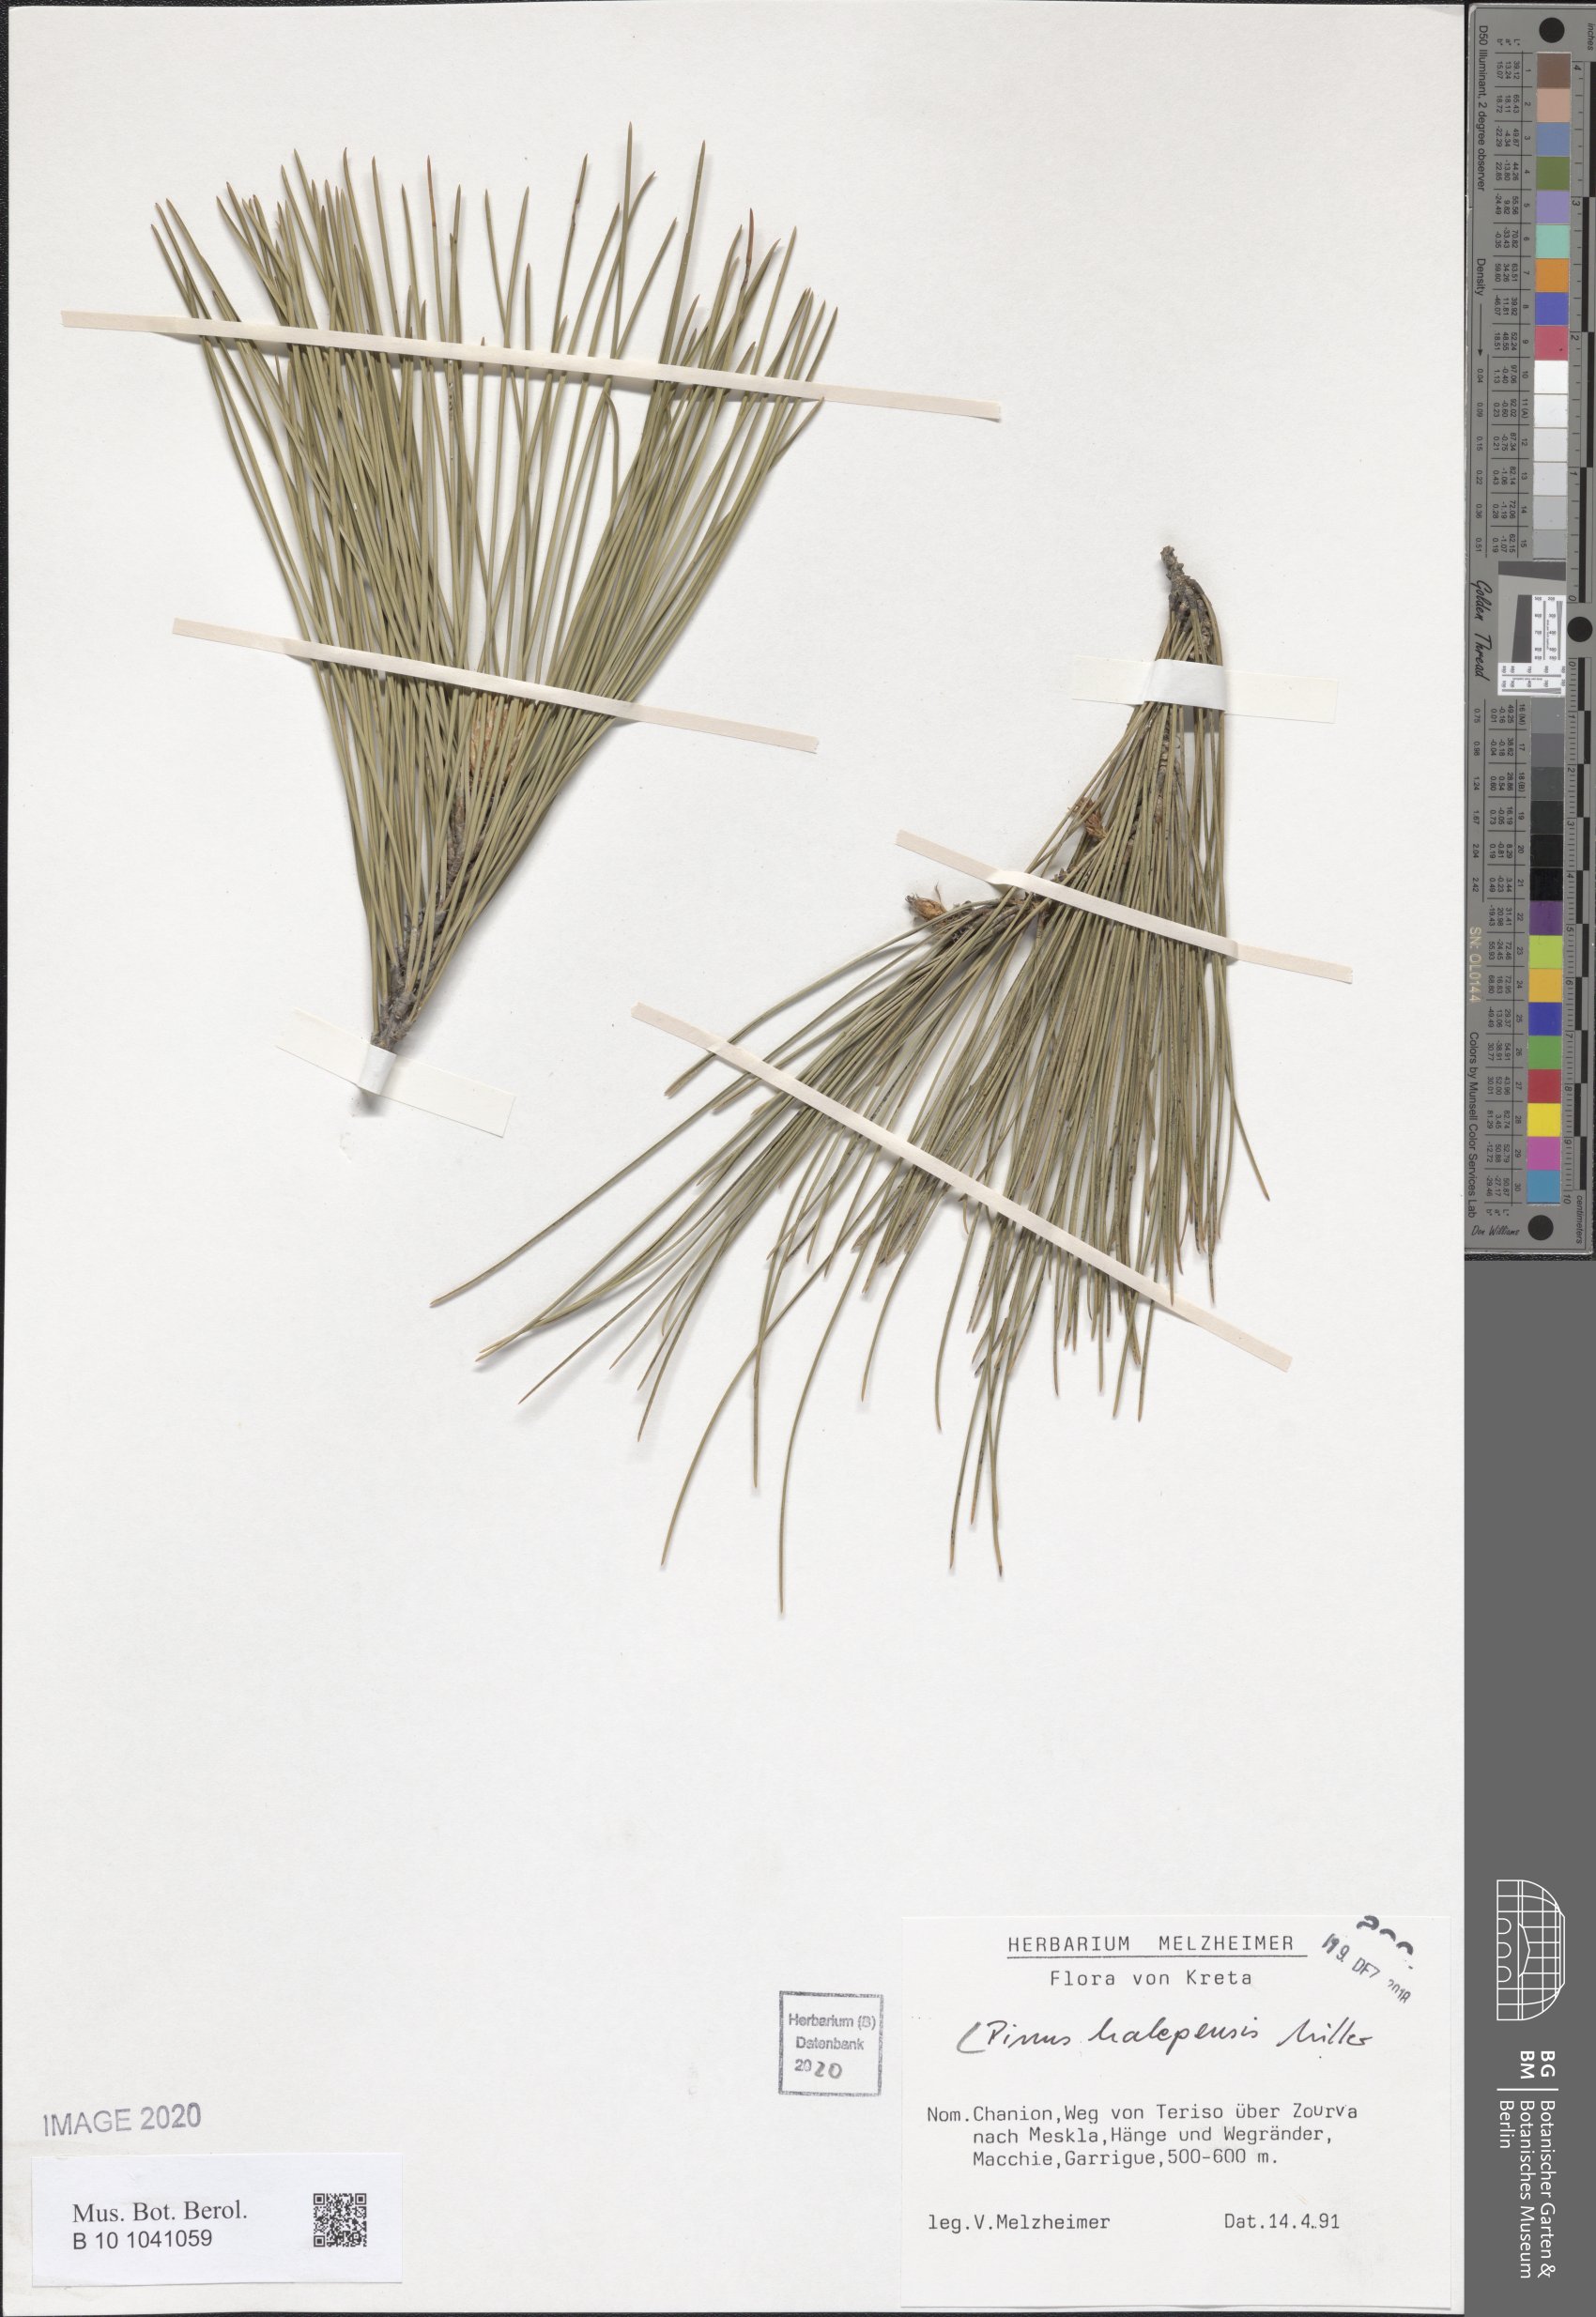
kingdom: Plantae
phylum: Tracheophyta
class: Pinopsida
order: Pinales
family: Pinaceae
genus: Pinus
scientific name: Pinus halepensis
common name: Aleppo pine
